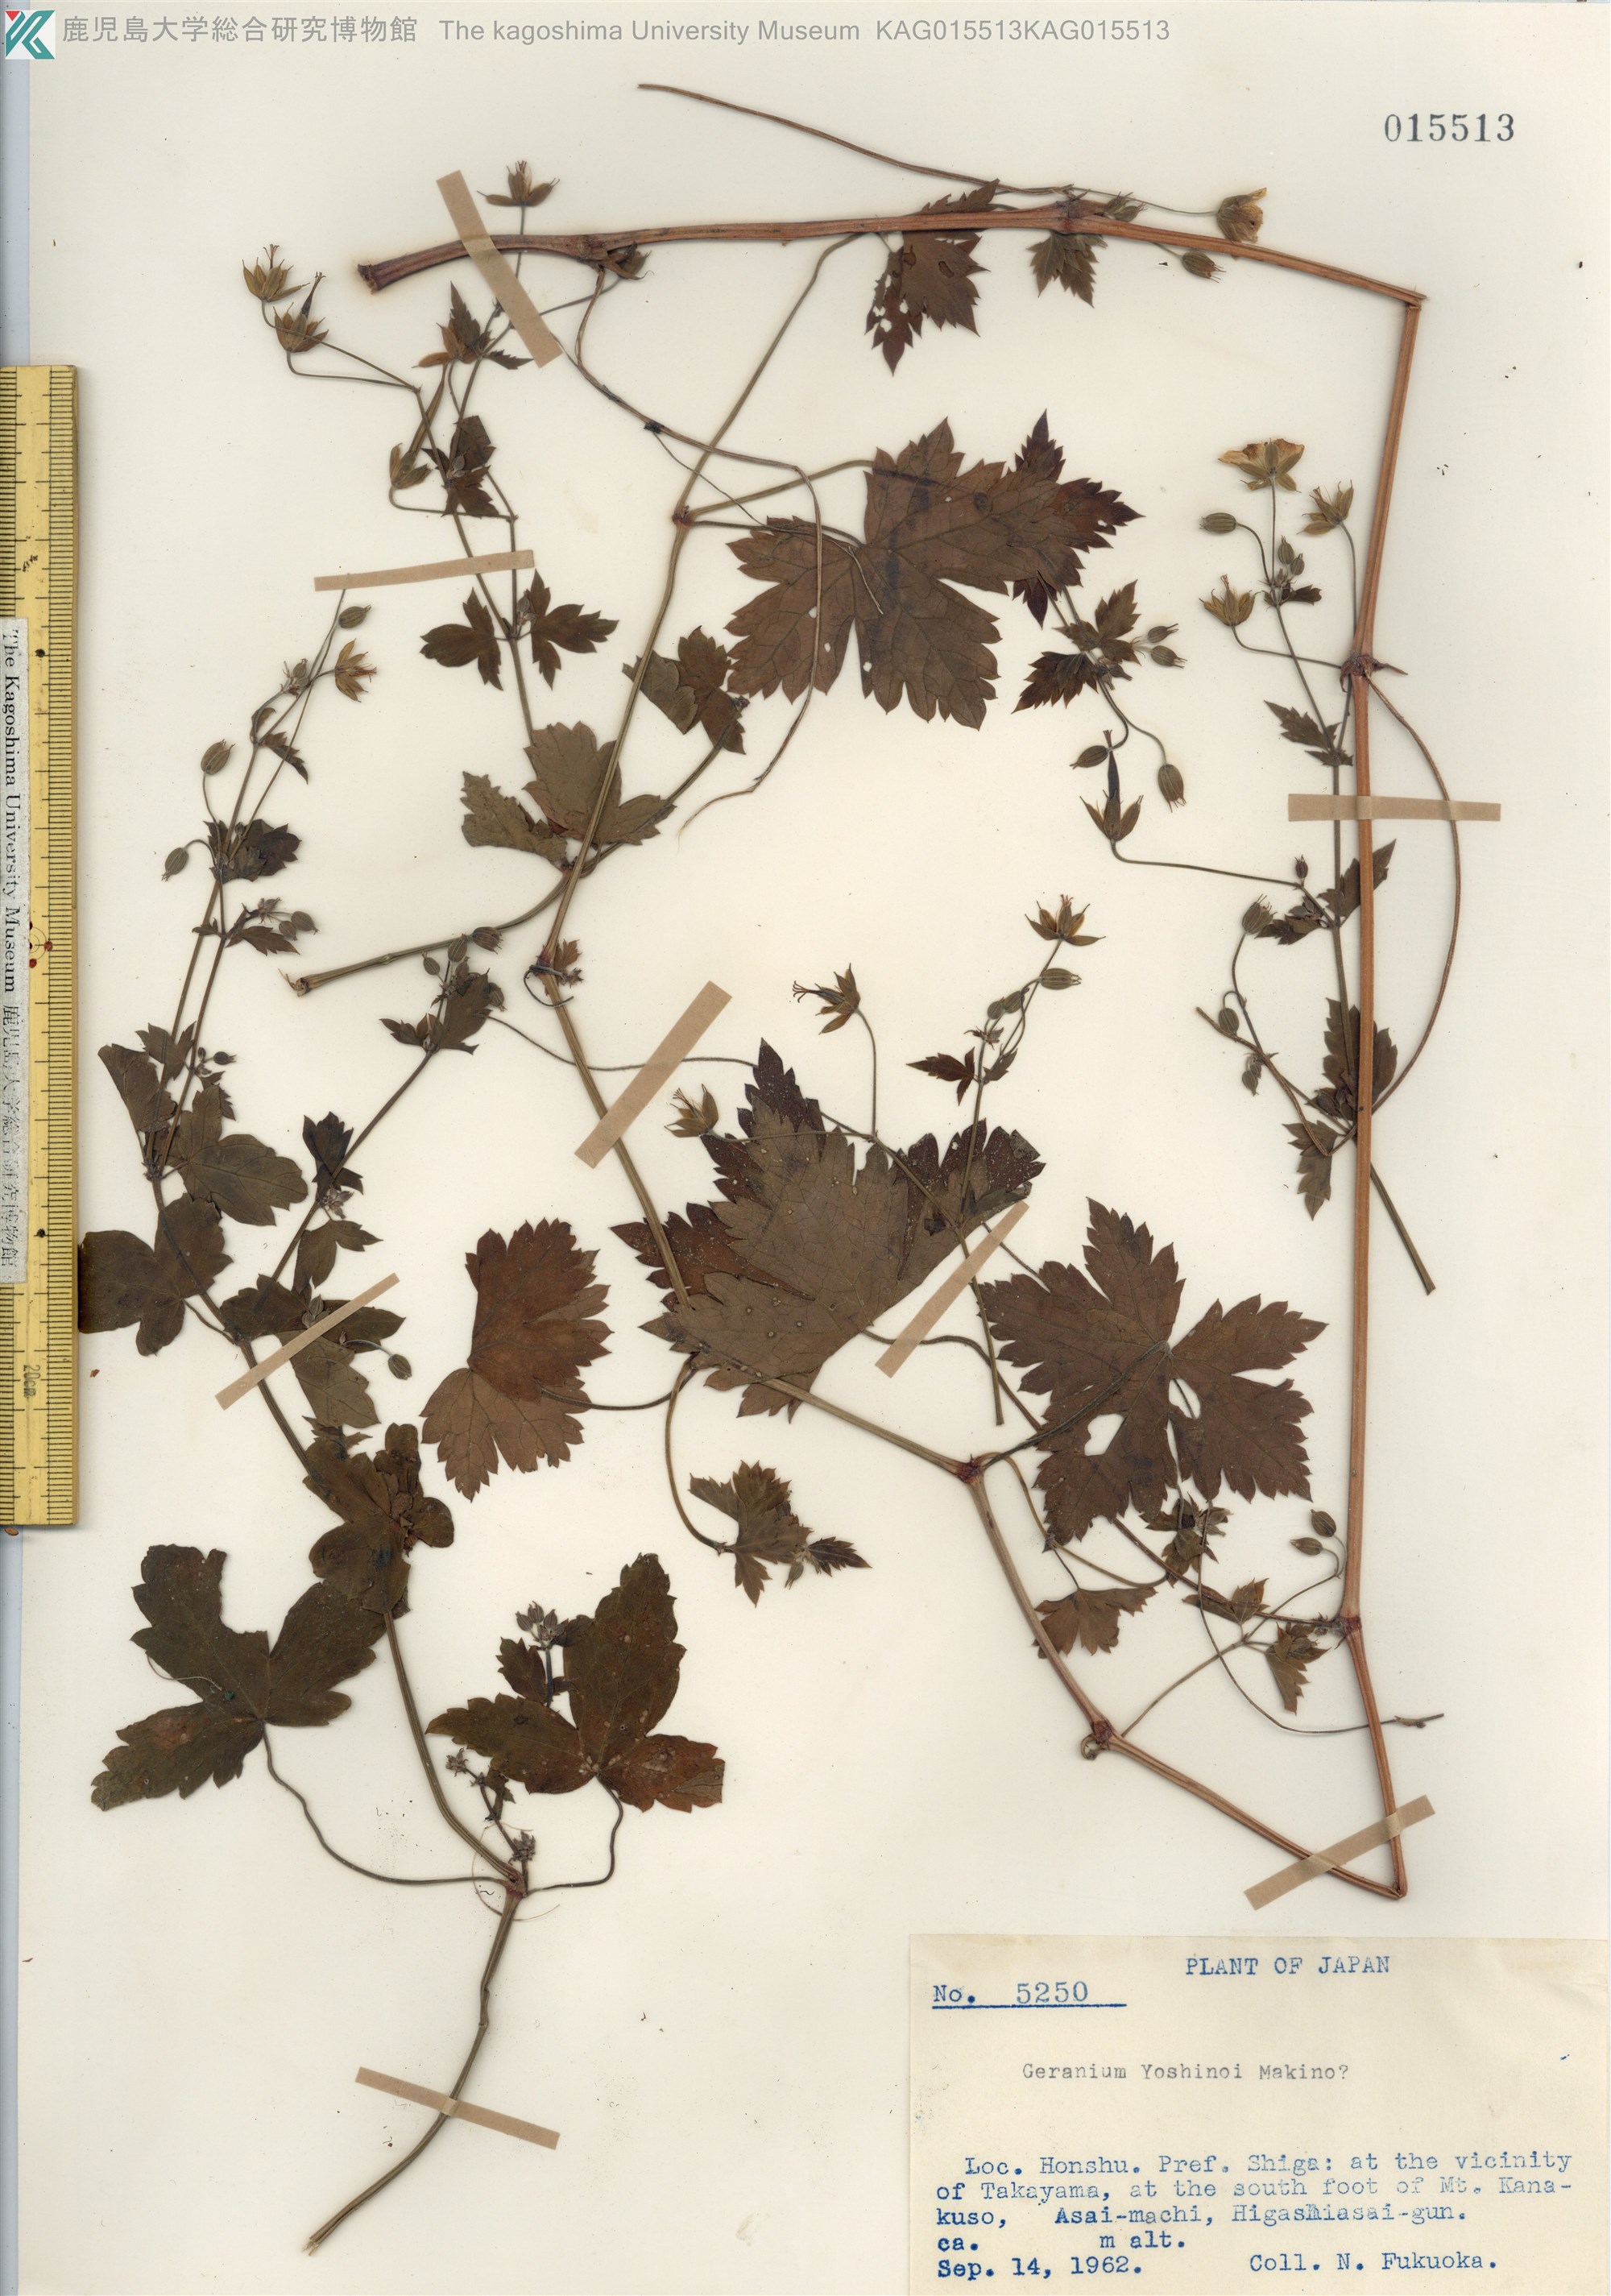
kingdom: Plantae
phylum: Tracheophyta
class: Magnoliopsida
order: Geraniales
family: Geraniaceae
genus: Geranium
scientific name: Geranium wilfordii
